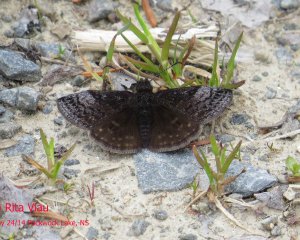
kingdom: Animalia
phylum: Arthropoda
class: Insecta
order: Lepidoptera
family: Hesperiidae
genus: Erynnis
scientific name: Erynnis icelus
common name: Dreamy Duskywing
